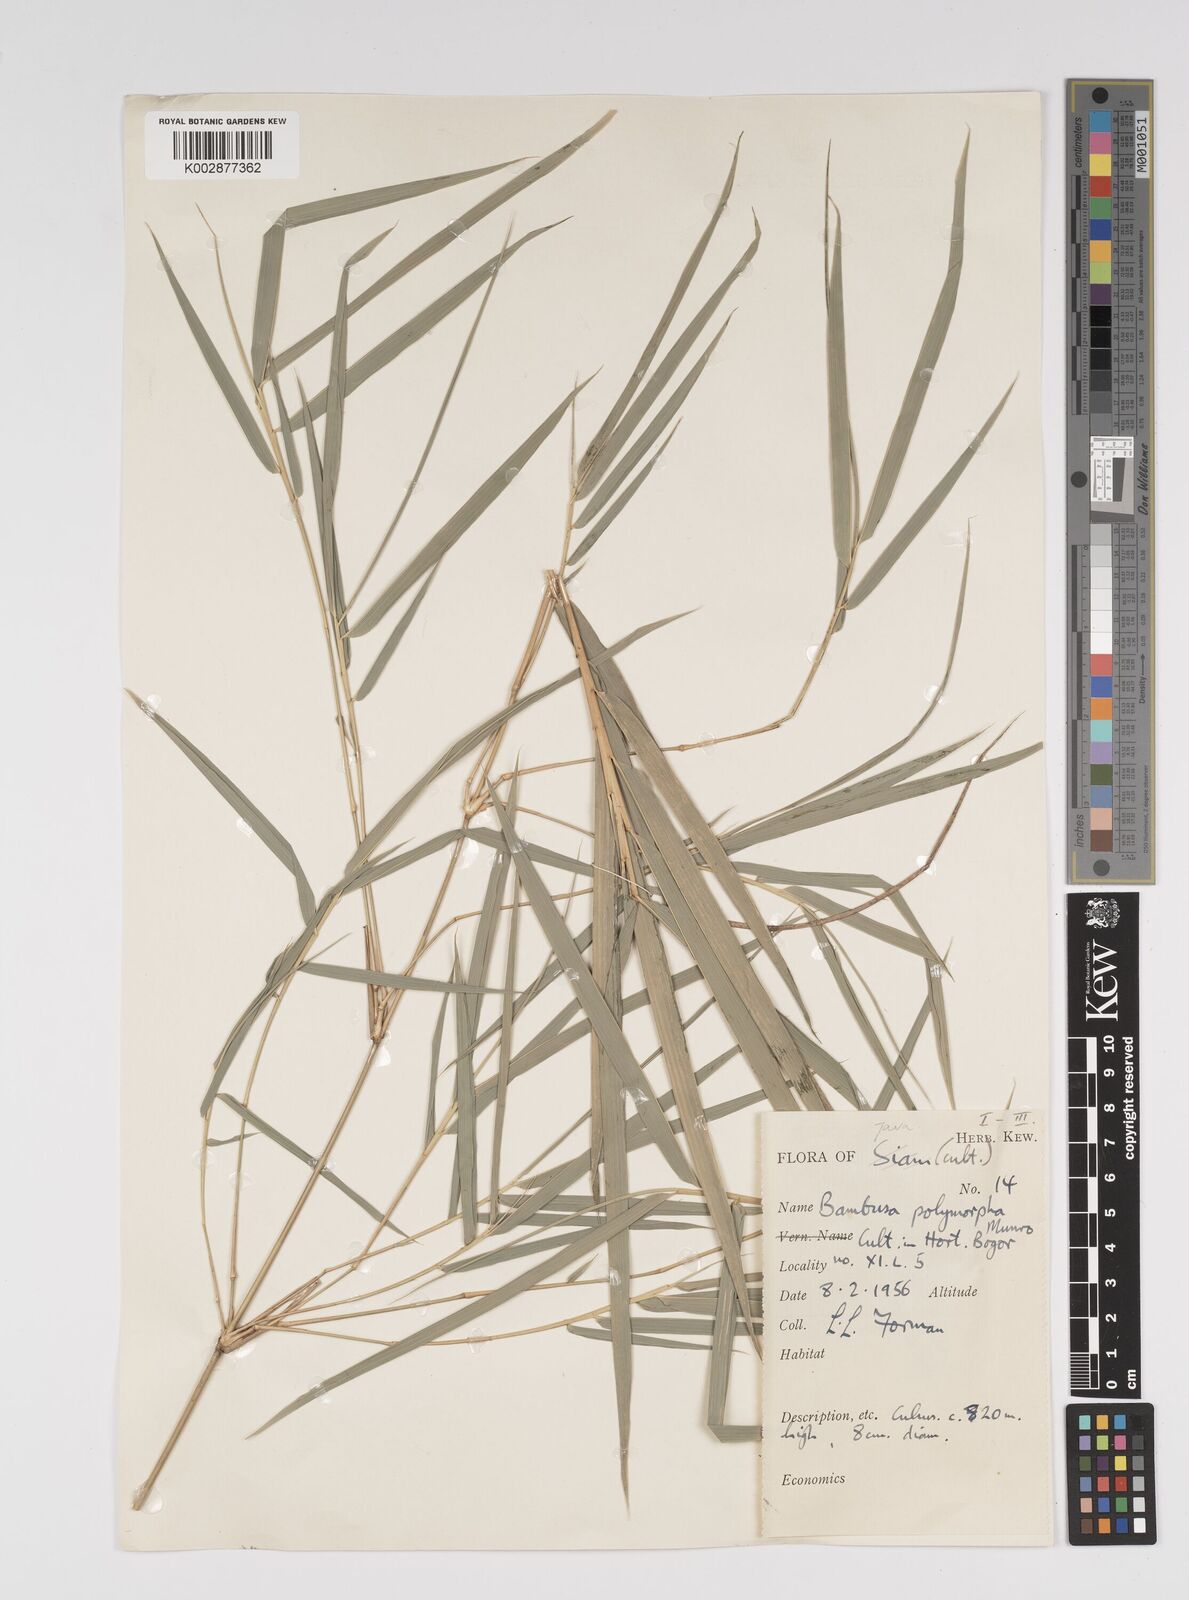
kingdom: Plantae
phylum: Tracheophyta
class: Liliopsida
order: Poales
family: Poaceae
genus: Bambusa
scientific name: Bambusa
